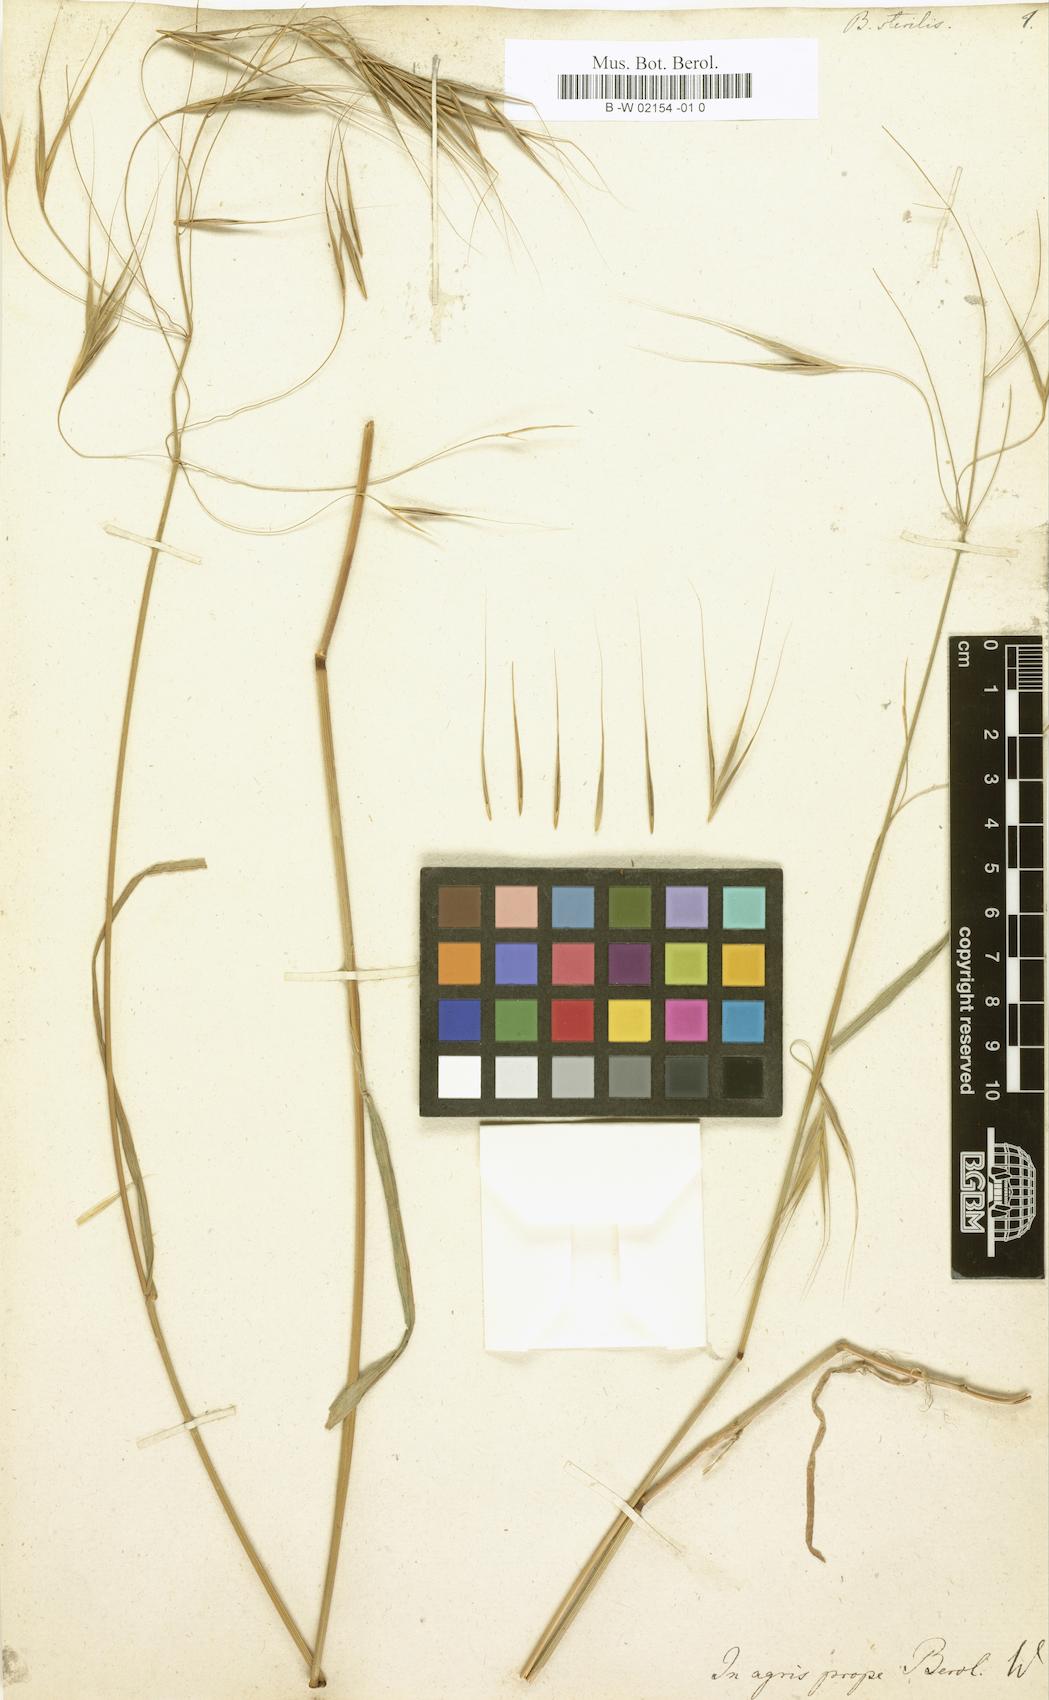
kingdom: Plantae
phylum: Tracheophyta
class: Liliopsida
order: Poales
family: Poaceae
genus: Bromus
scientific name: Bromus sterilis
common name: Poverty brome
